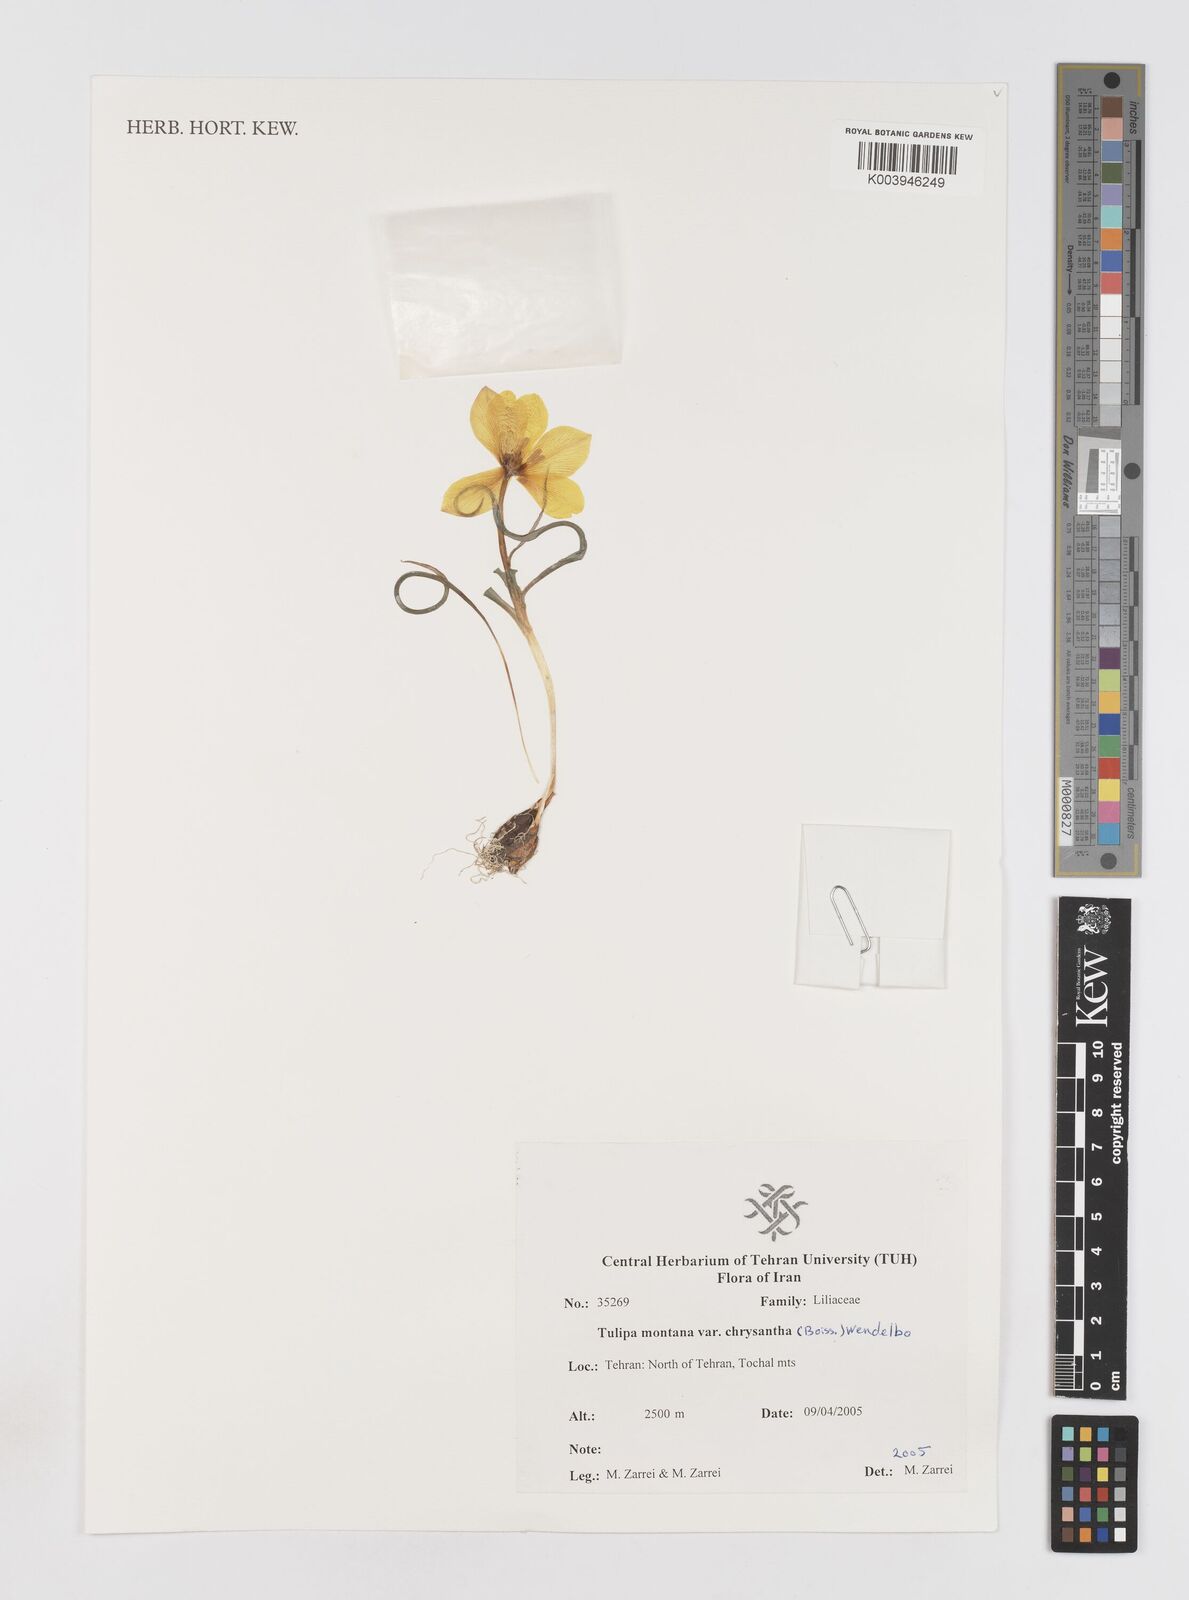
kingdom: Plantae
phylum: Tracheophyta
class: Liliopsida
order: Liliales
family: Liliaceae
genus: Tulipa
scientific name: Tulipa montana
